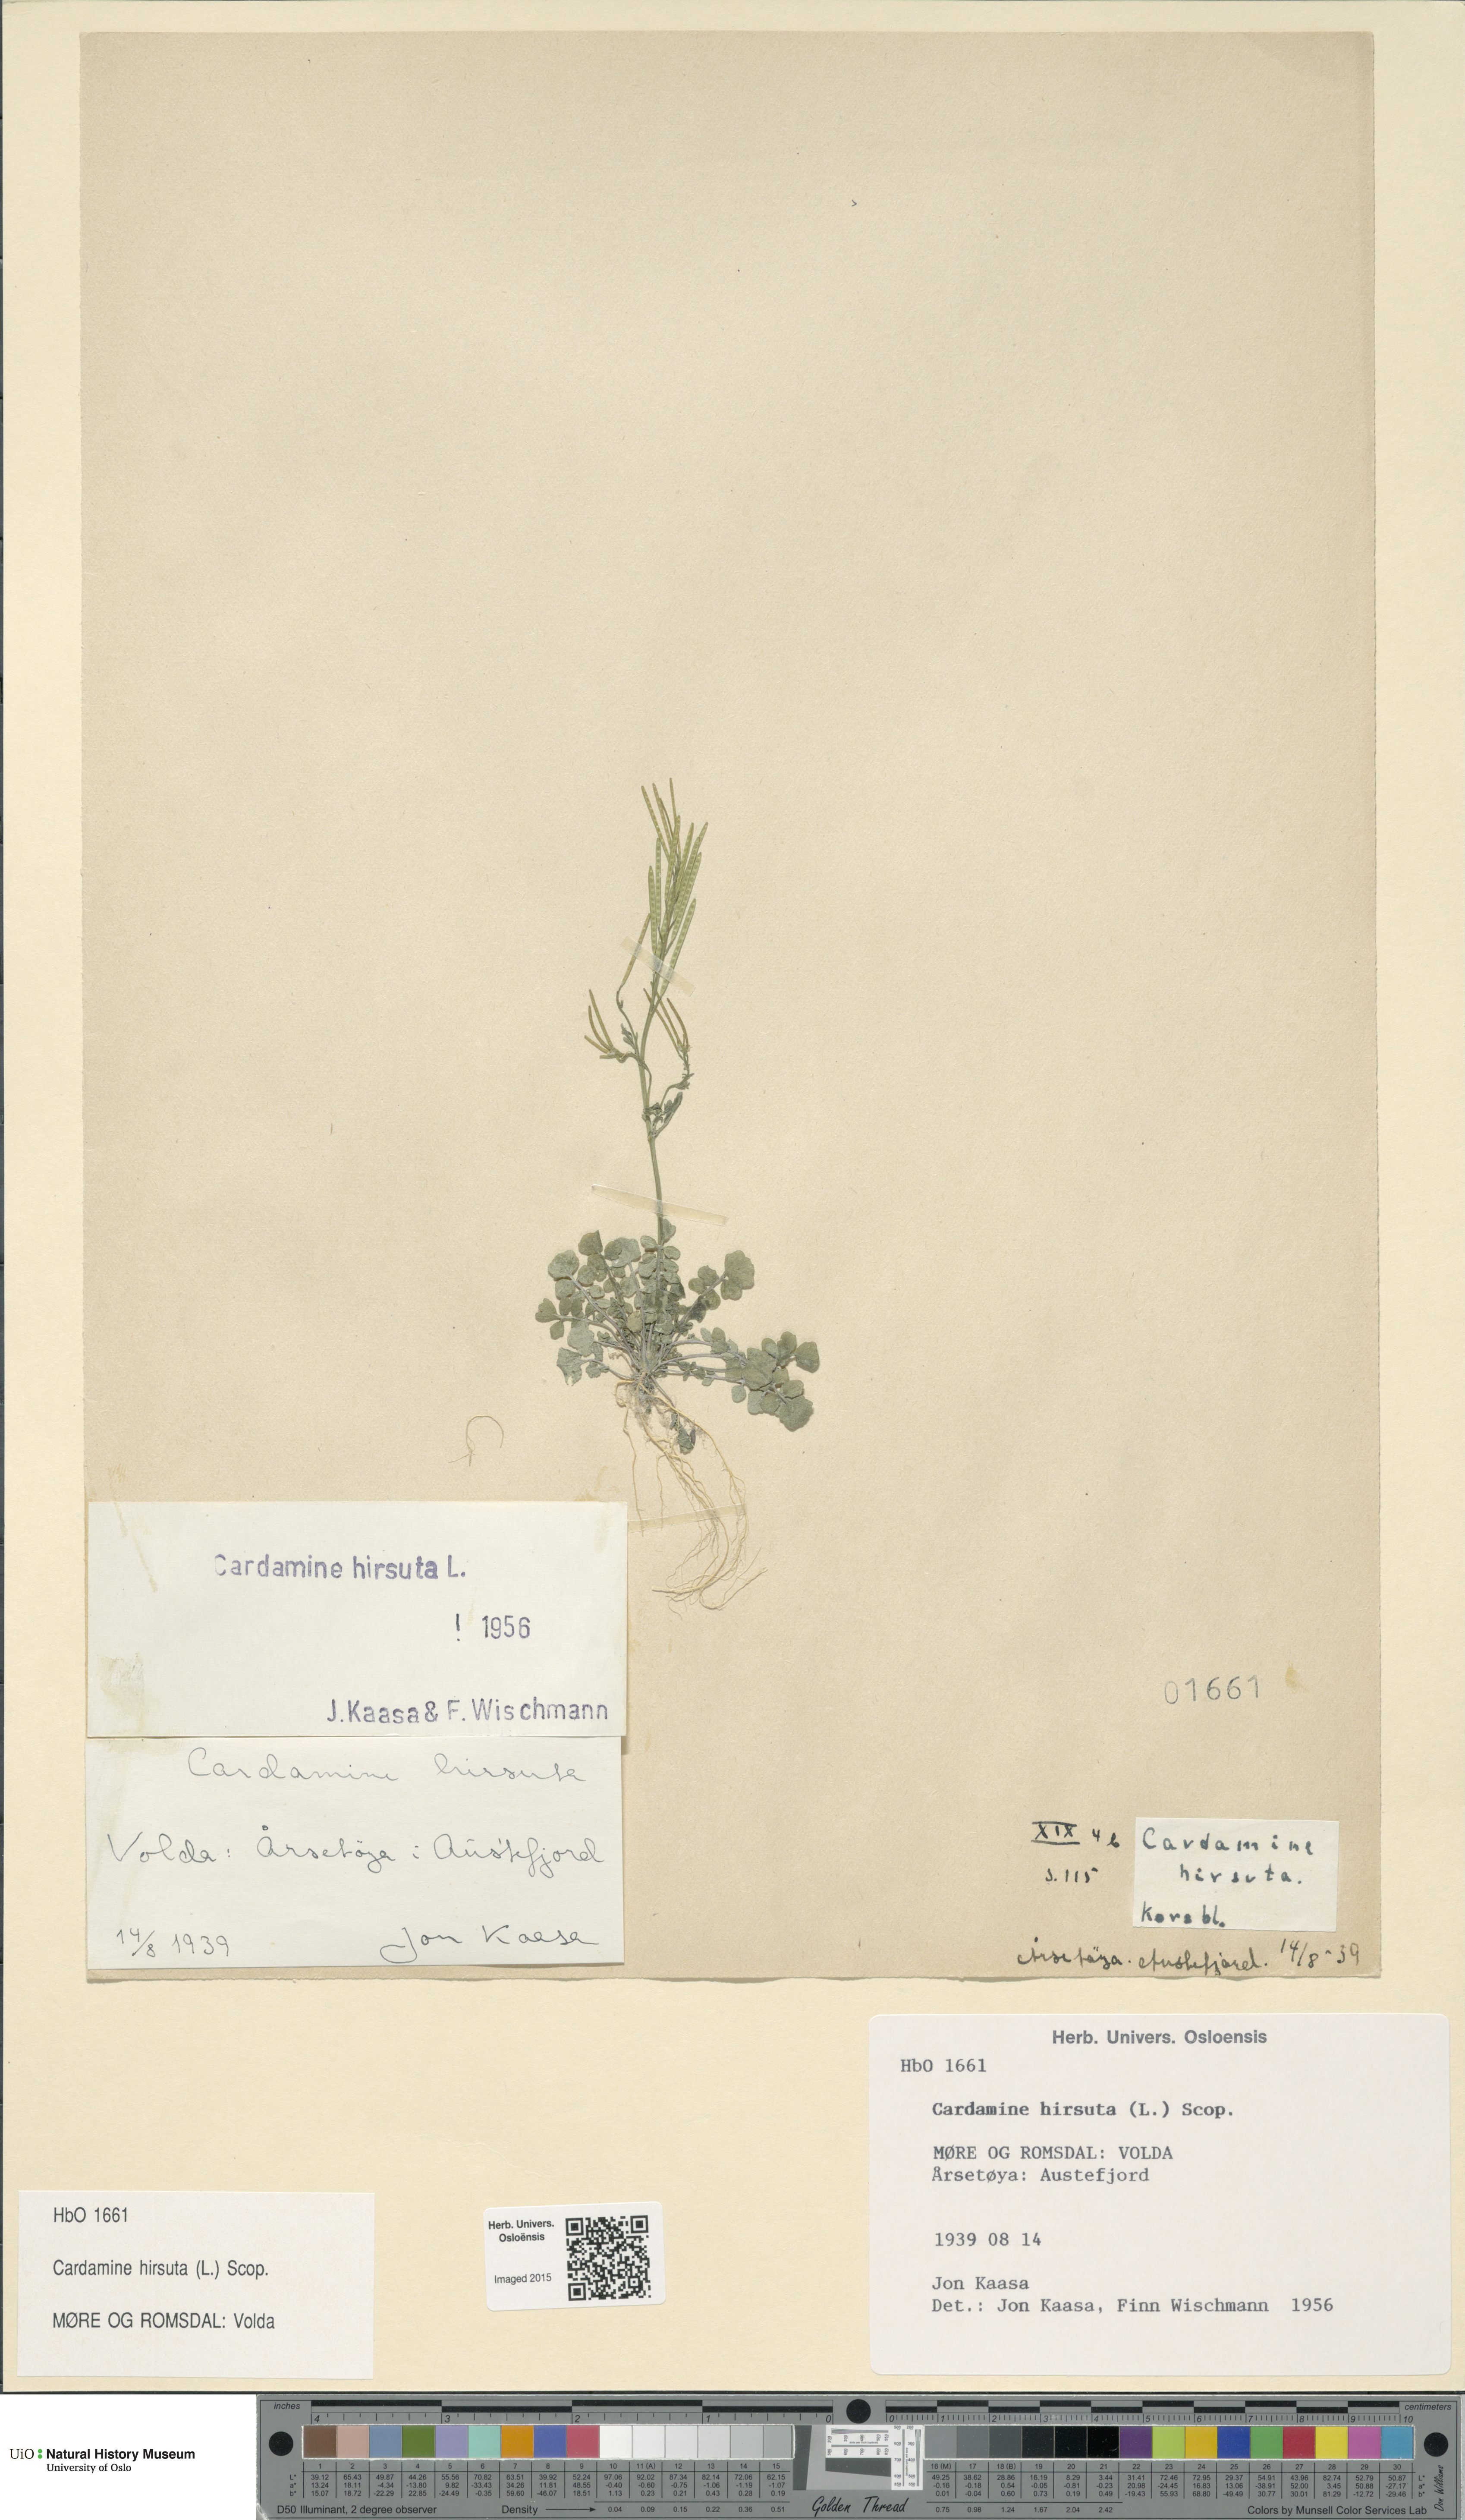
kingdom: Plantae
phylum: Tracheophyta
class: Magnoliopsida
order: Brassicales
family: Brassicaceae
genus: Cardamine
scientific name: Cardamine hirsuta
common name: Hairy bittercress
